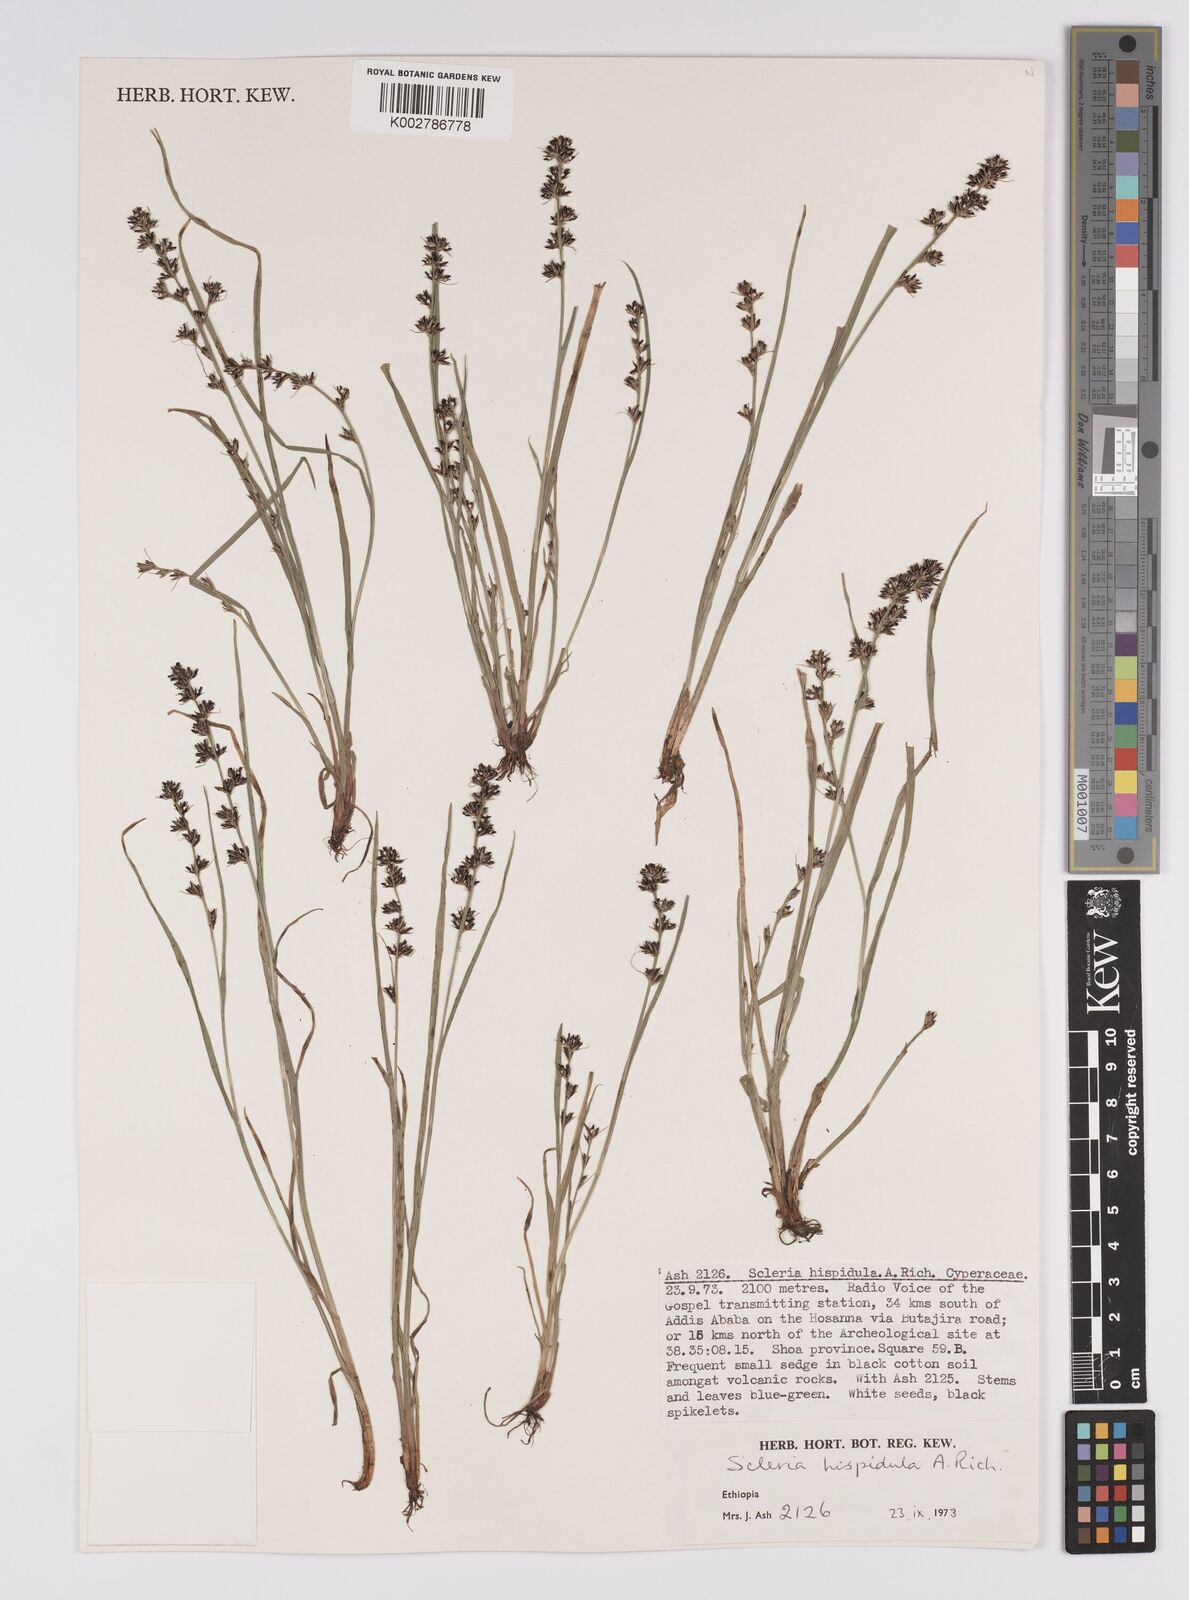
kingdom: Plantae
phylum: Tracheophyta
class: Liliopsida
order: Poales
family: Cyperaceae
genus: Scleria
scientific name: Scleria hispidula
